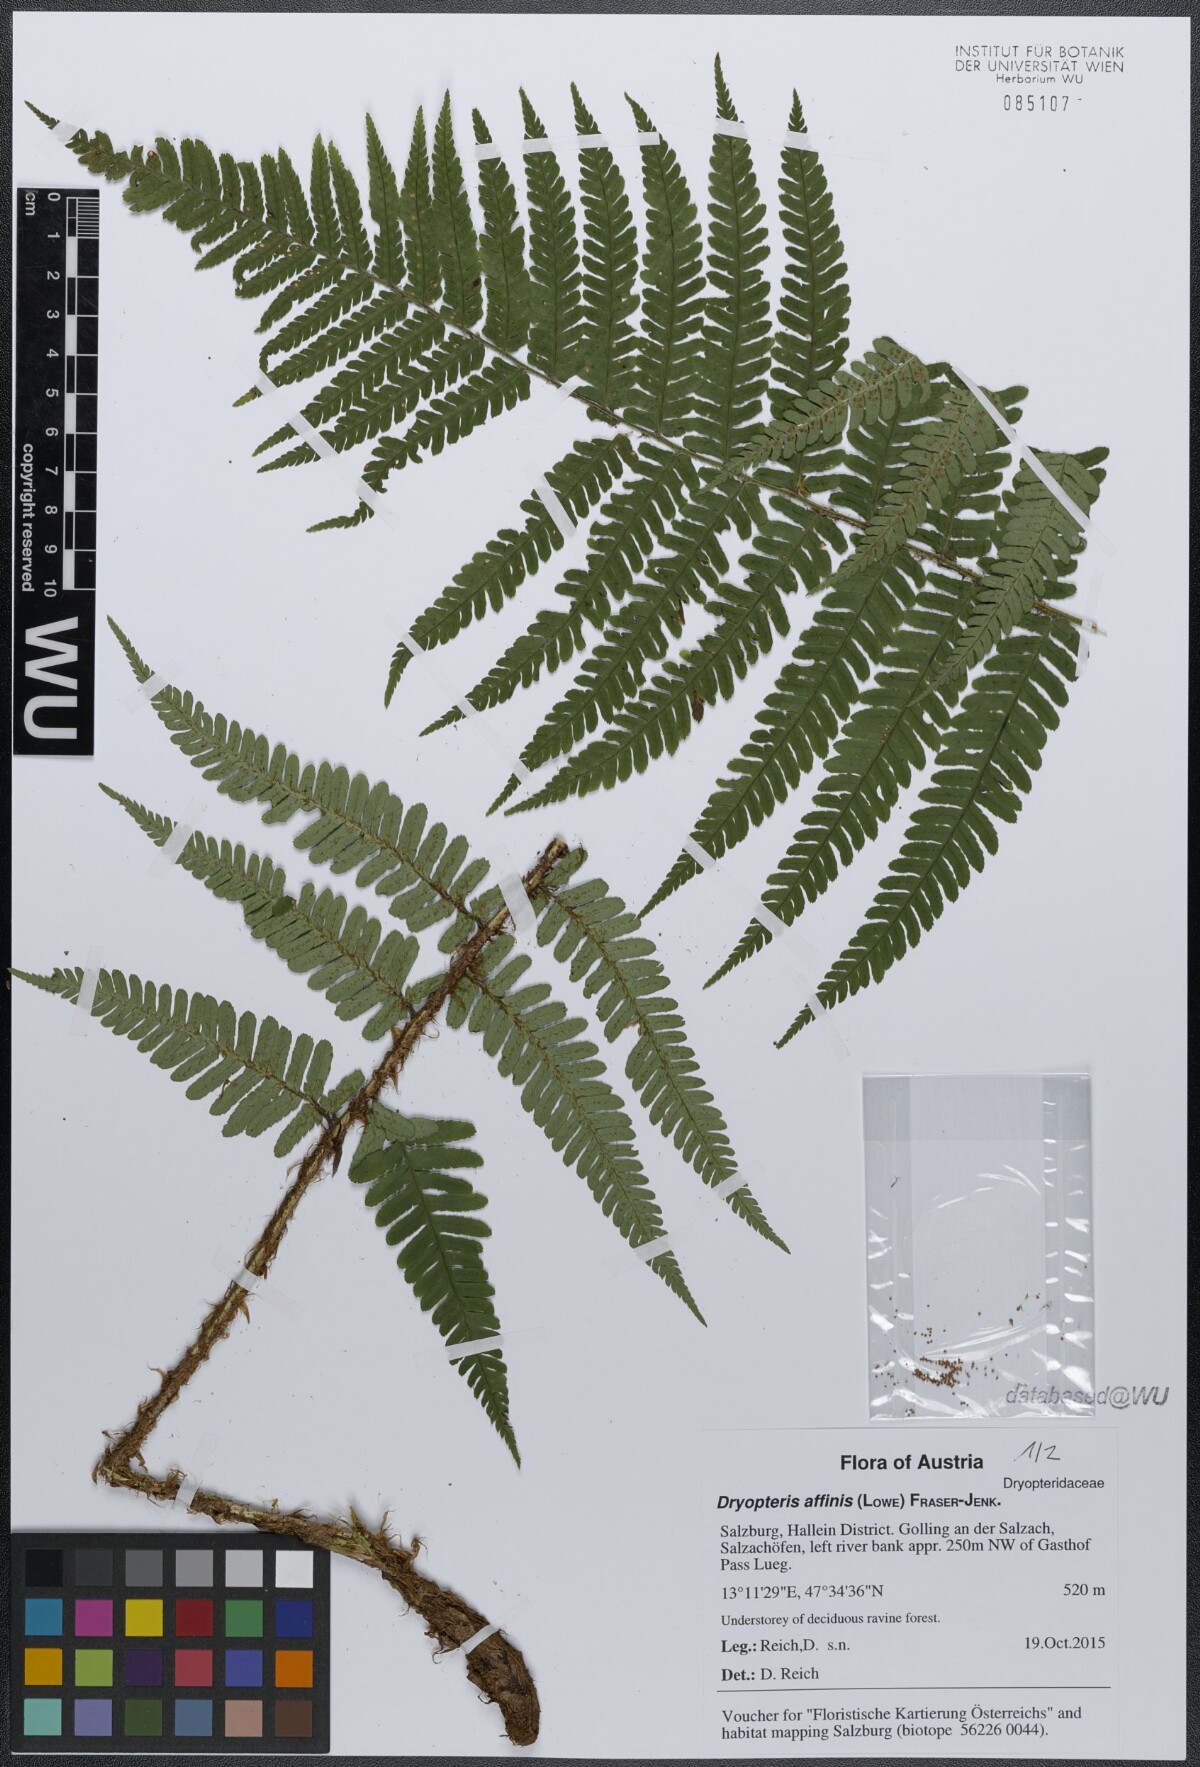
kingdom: Plantae
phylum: Tracheophyta
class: Polypodiopsida
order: Polypodiales
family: Dryopteridaceae
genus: Dryopteris
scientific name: Dryopteris affinis
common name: Scaly male fern
